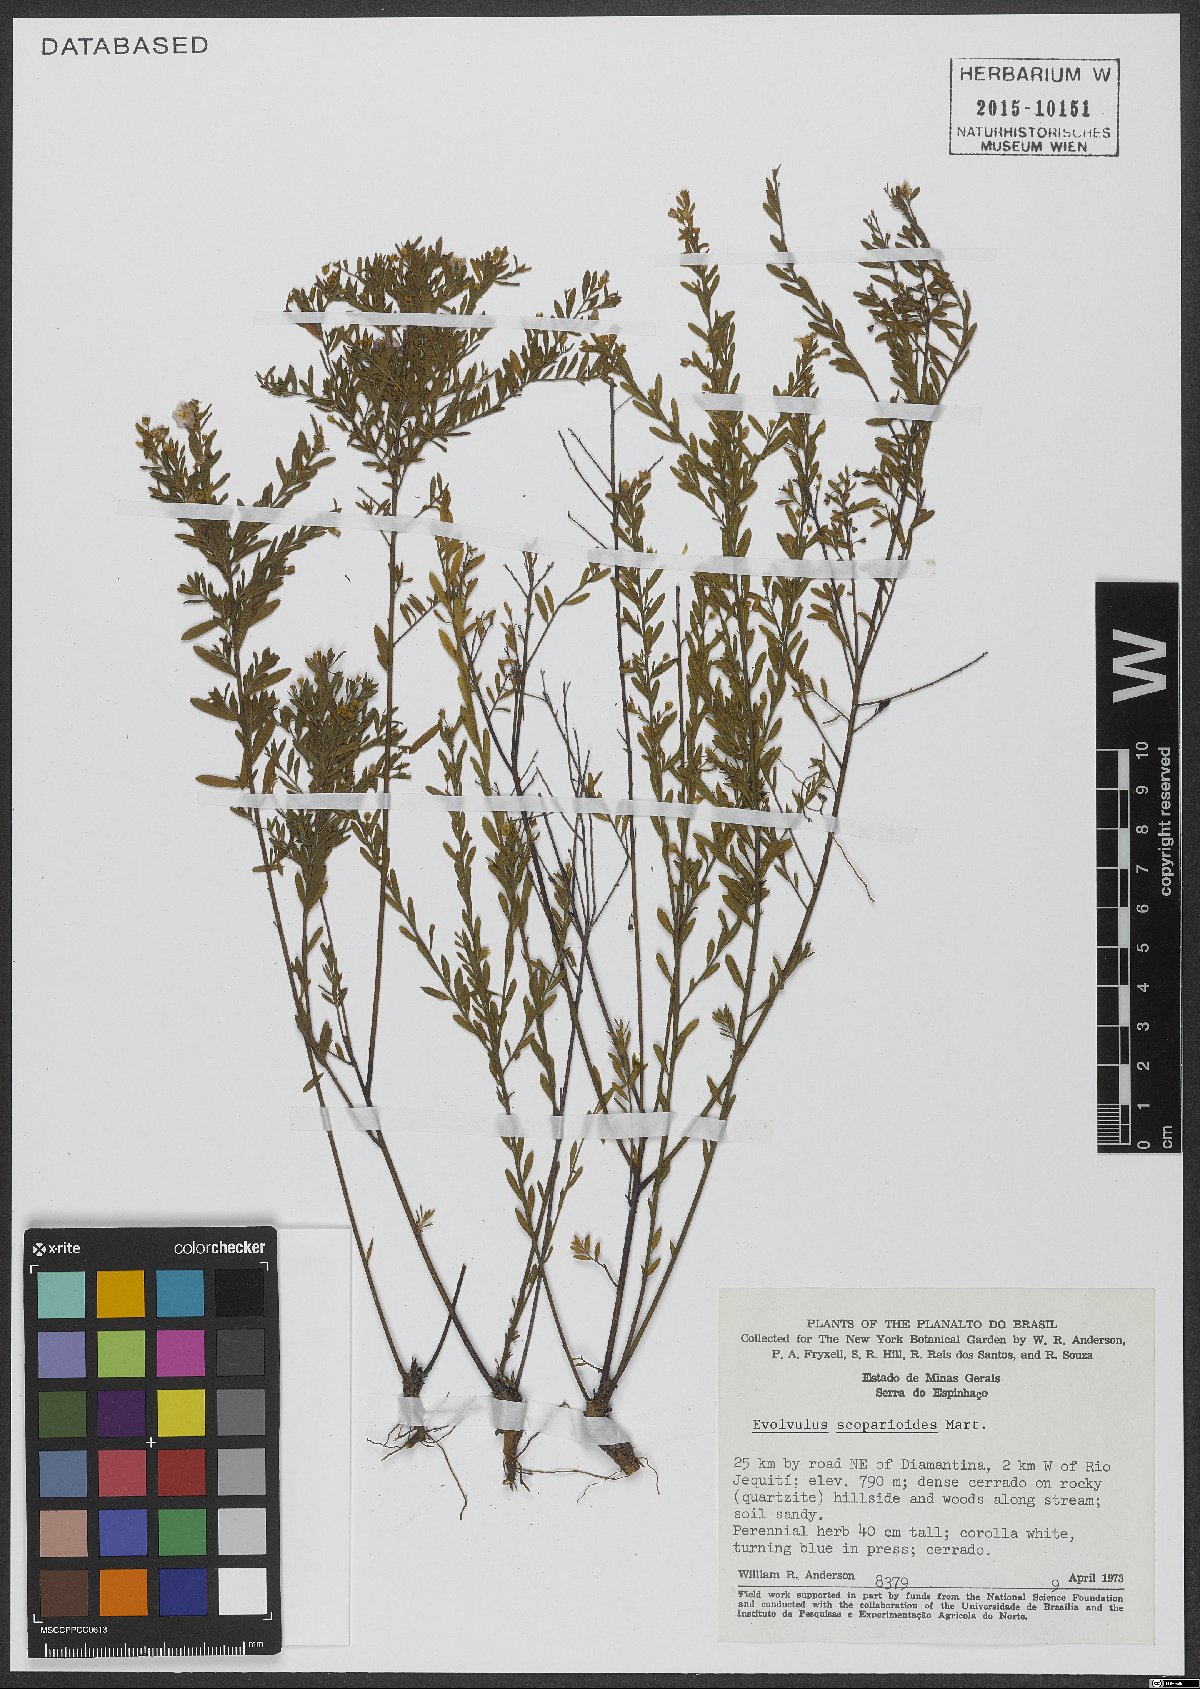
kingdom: Plantae
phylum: Tracheophyta
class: Magnoliopsida
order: Solanales
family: Convolvulaceae
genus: Evolvulus
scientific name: Evolvulus scoparioides
